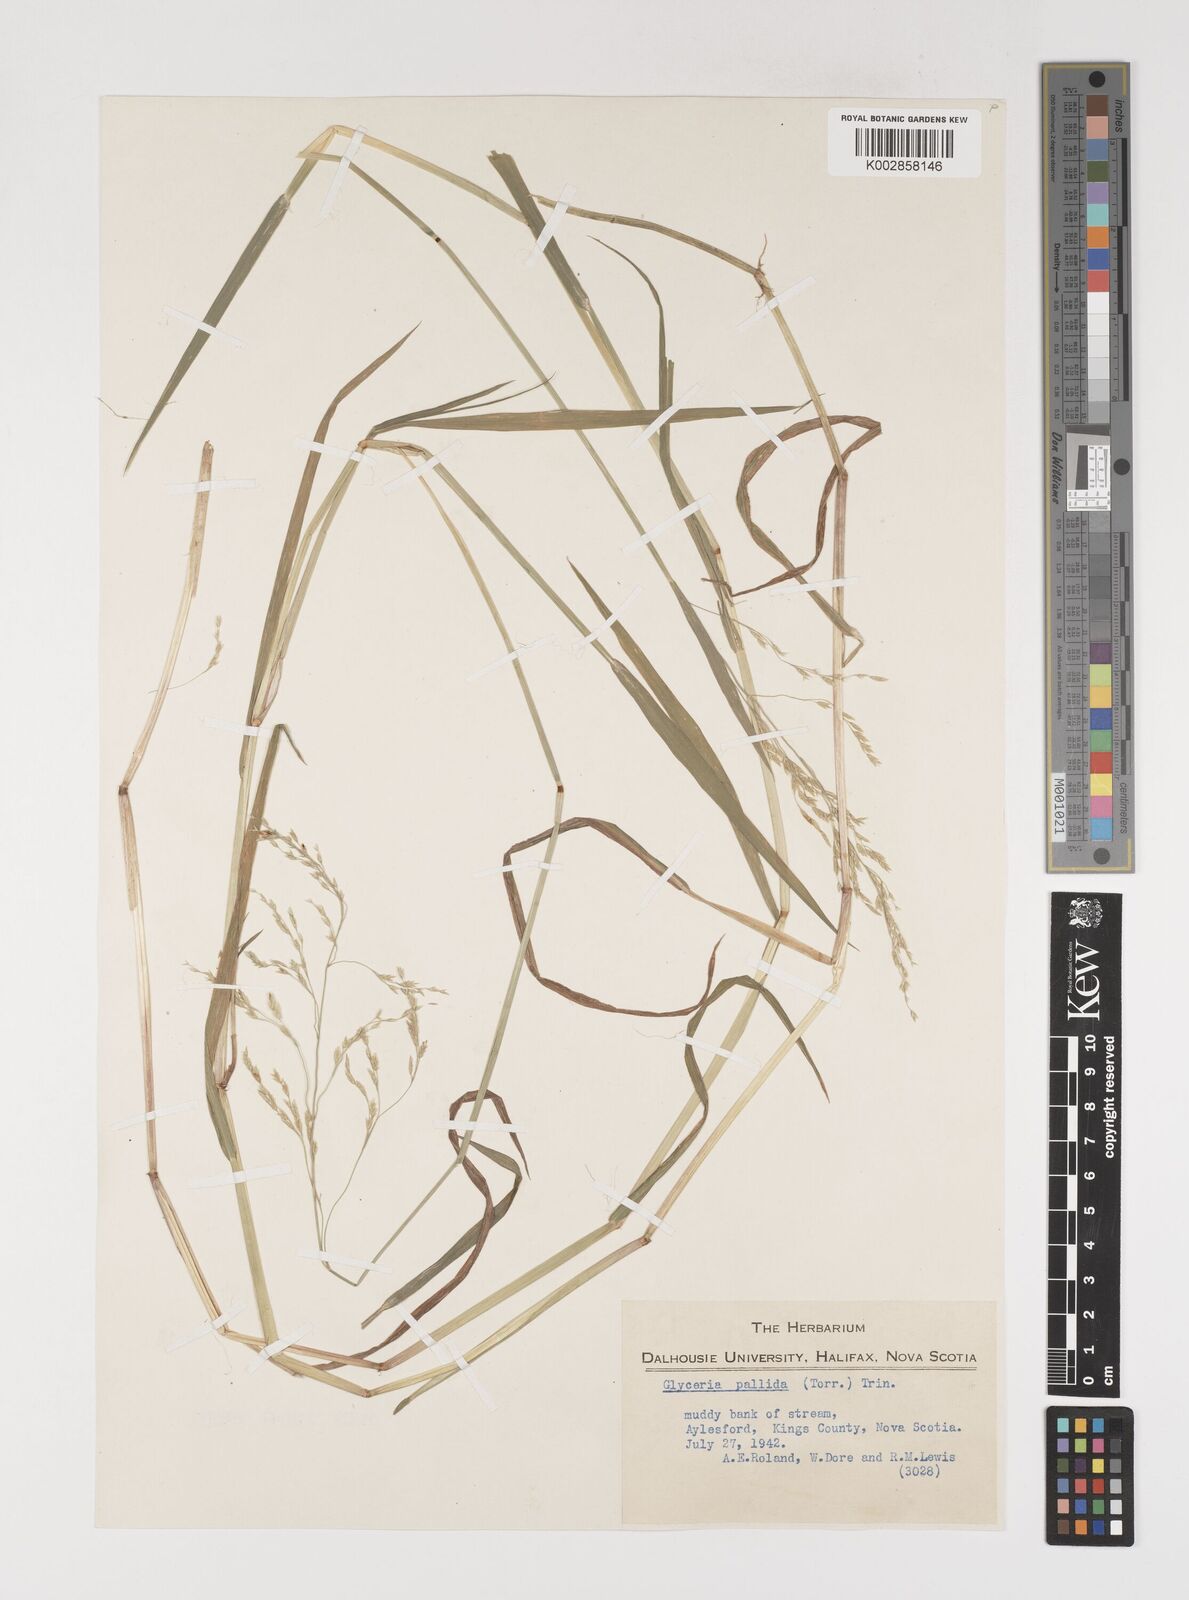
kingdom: Plantae
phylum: Tracheophyta
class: Liliopsida
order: Poales
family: Poaceae
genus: Torreyochloa
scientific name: Torreyochloa pallida
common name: Pale false mannagrass
